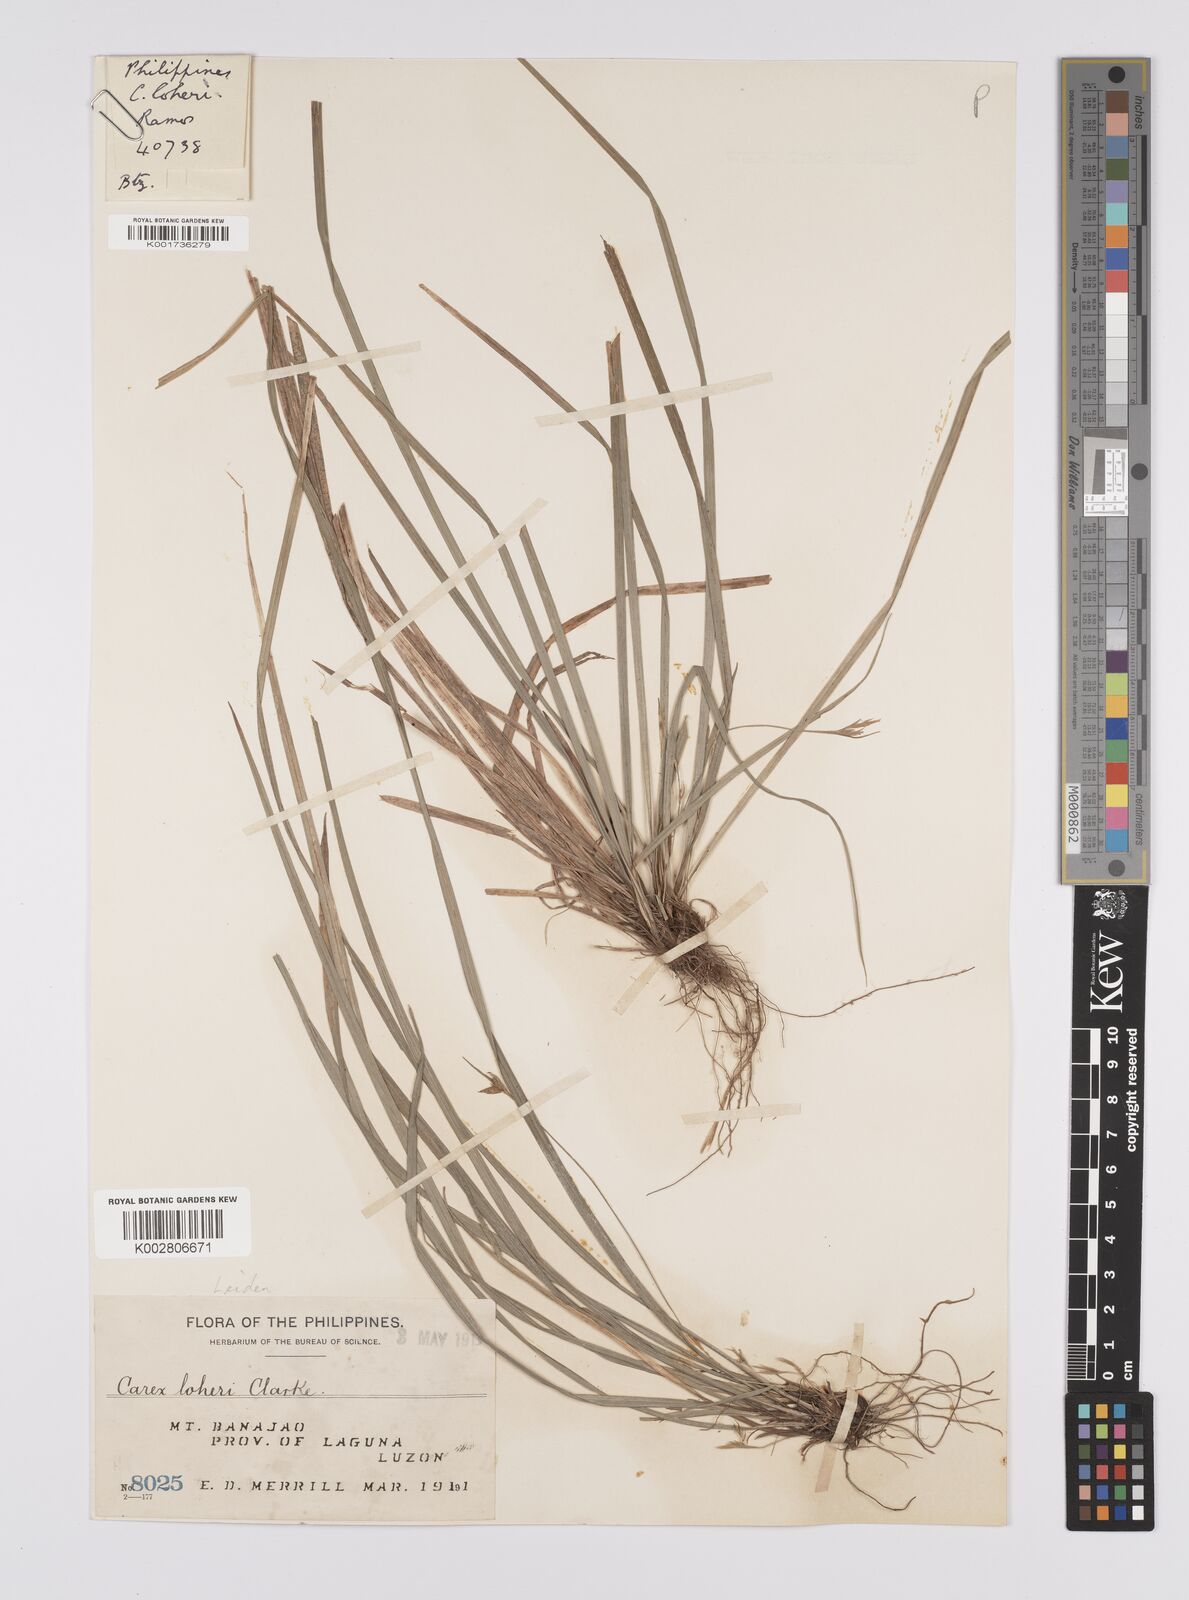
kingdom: Plantae
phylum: Tracheophyta
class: Liliopsida
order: Poales
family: Cyperaceae
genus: Carex
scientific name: Carex oxyphylla
